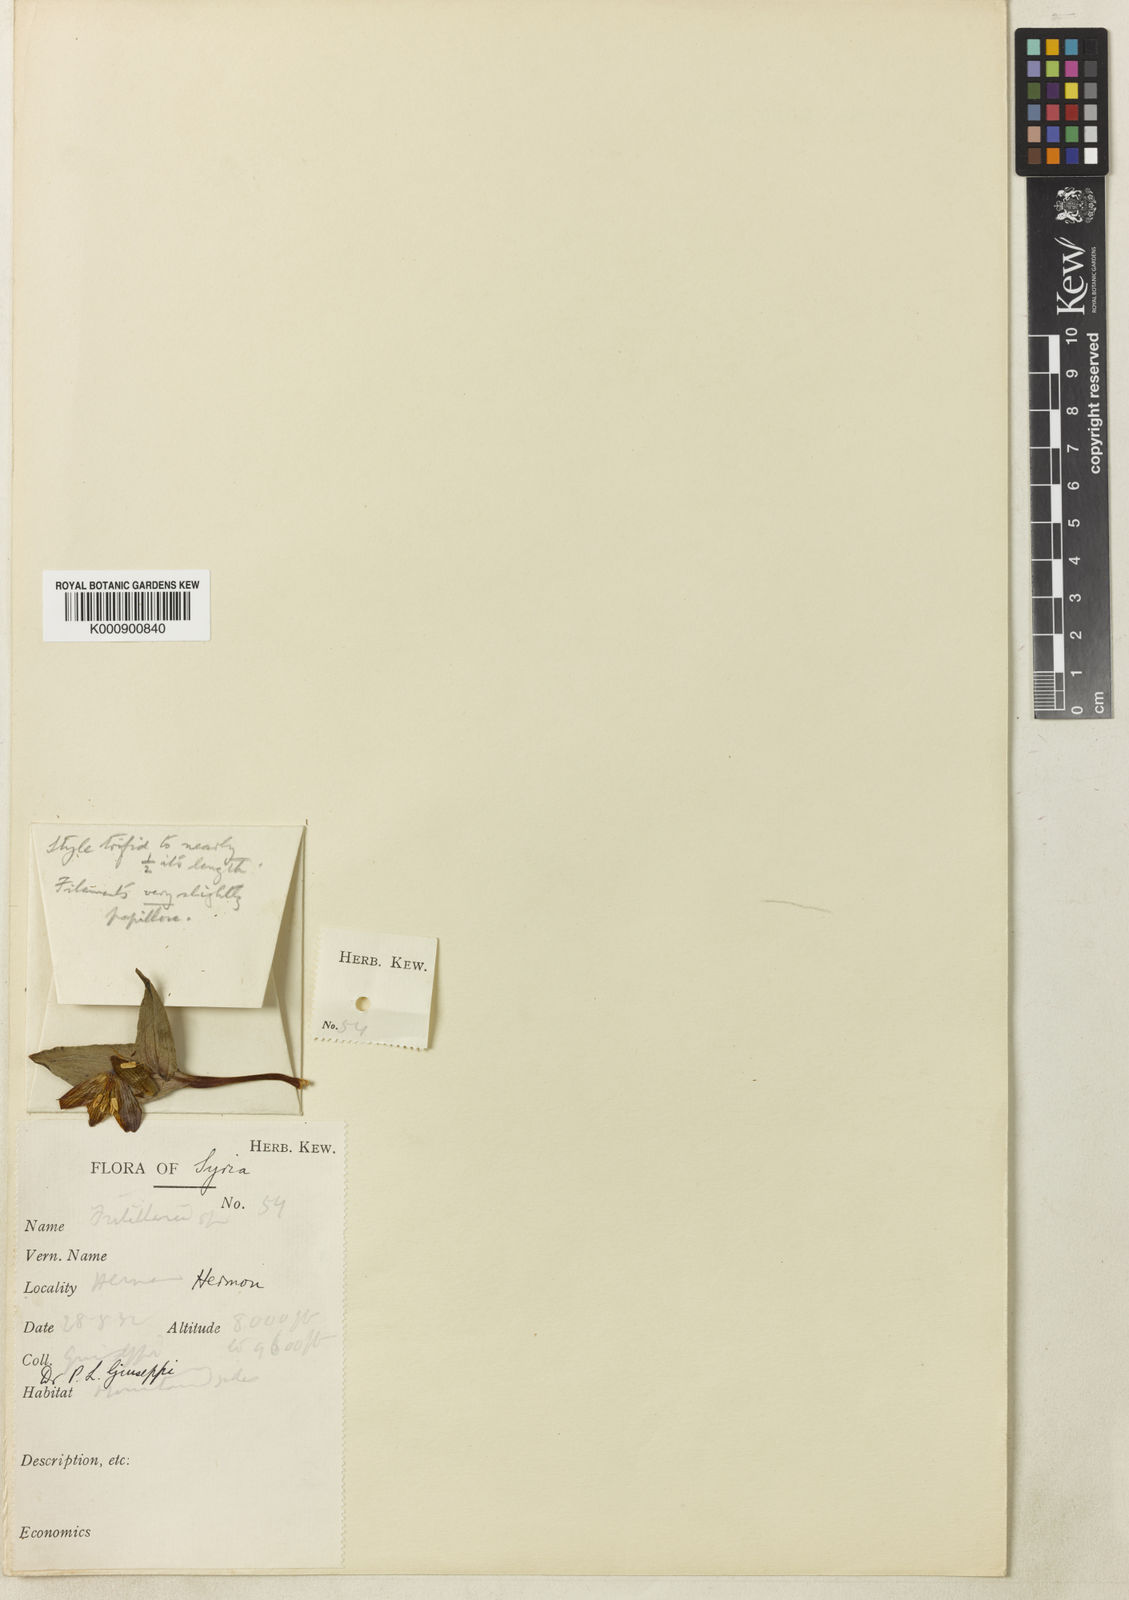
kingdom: Plantae
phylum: Tracheophyta
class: Liliopsida
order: Liliales
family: Liliaceae
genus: Fritillaria
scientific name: Fritillaria crassifolia
